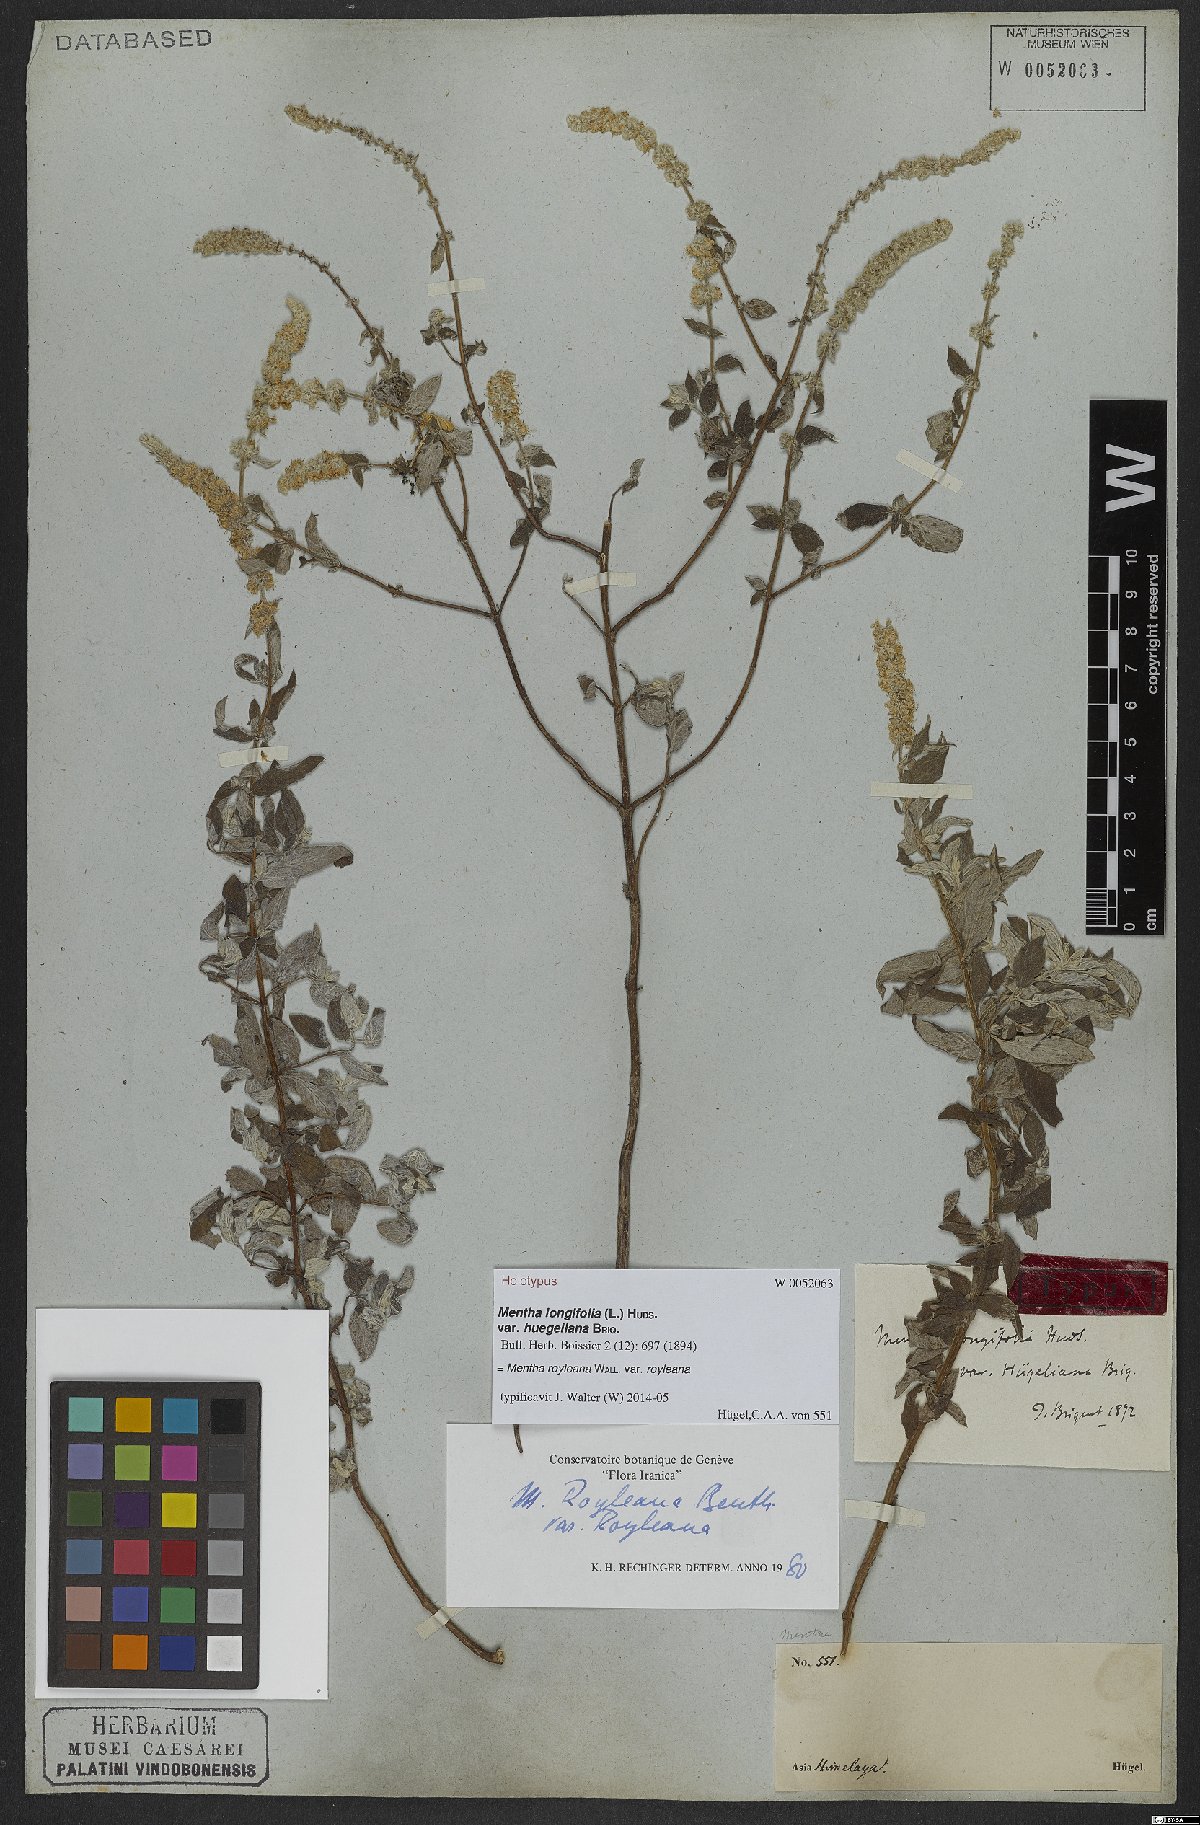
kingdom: Plantae
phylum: Tracheophyta
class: Magnoliopsida
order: Lamiales
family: Lamiaceae
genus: Mentha
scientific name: Mentha royleana
